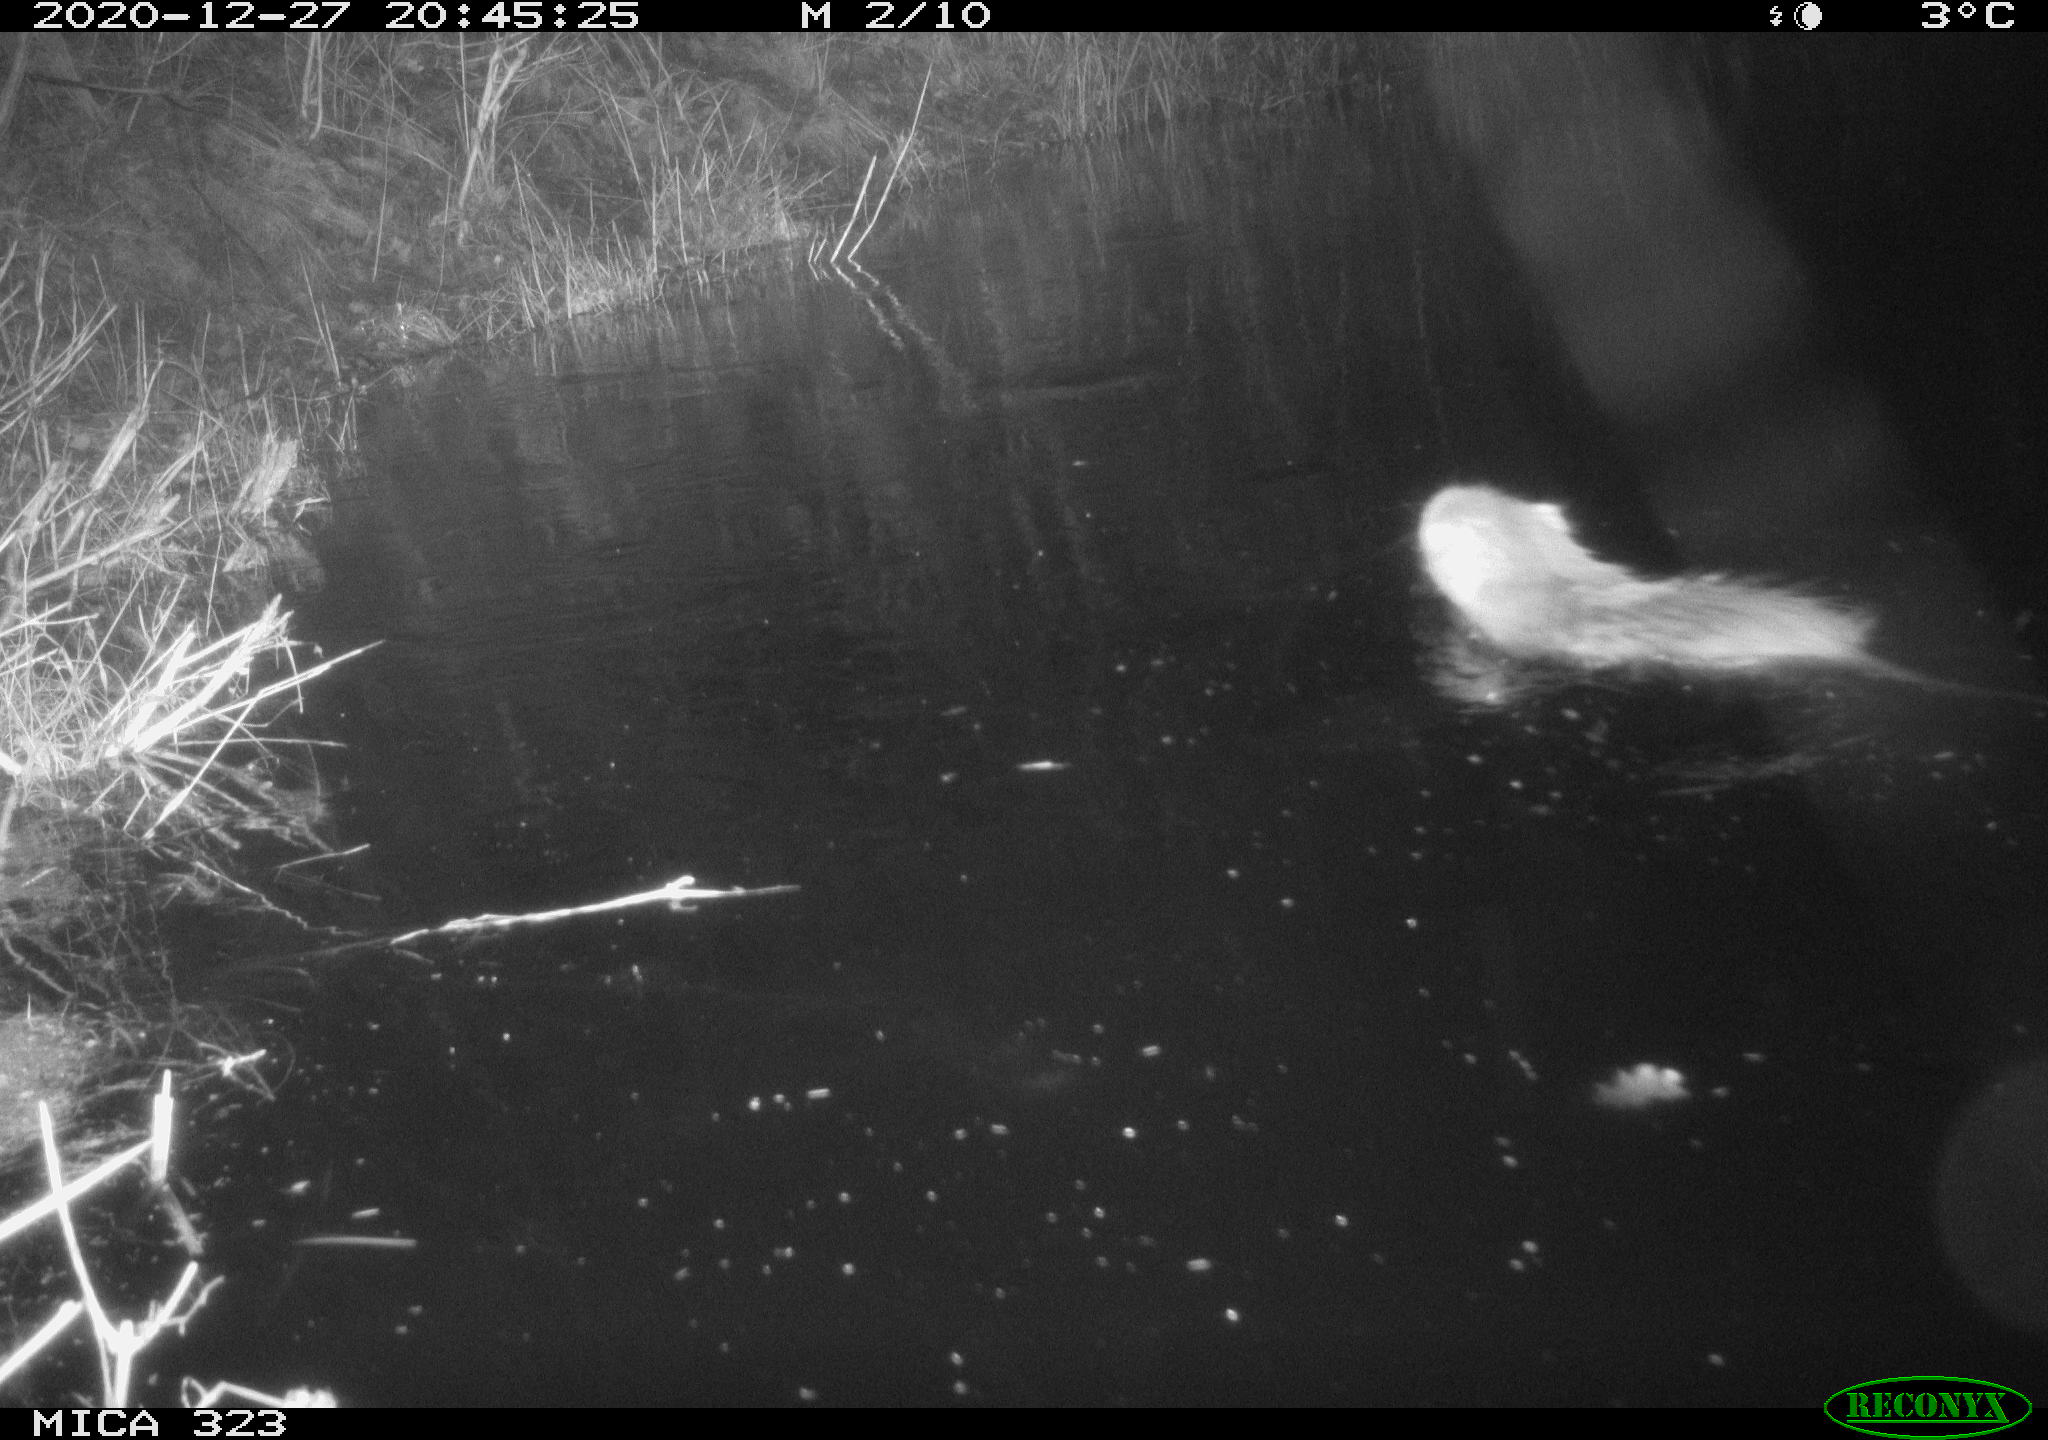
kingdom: Animalia
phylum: Chordata
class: Mammalia
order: Rodentia
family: Myocastoridae
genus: Myocastor
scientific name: Myocastor coypus
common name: Coypu
